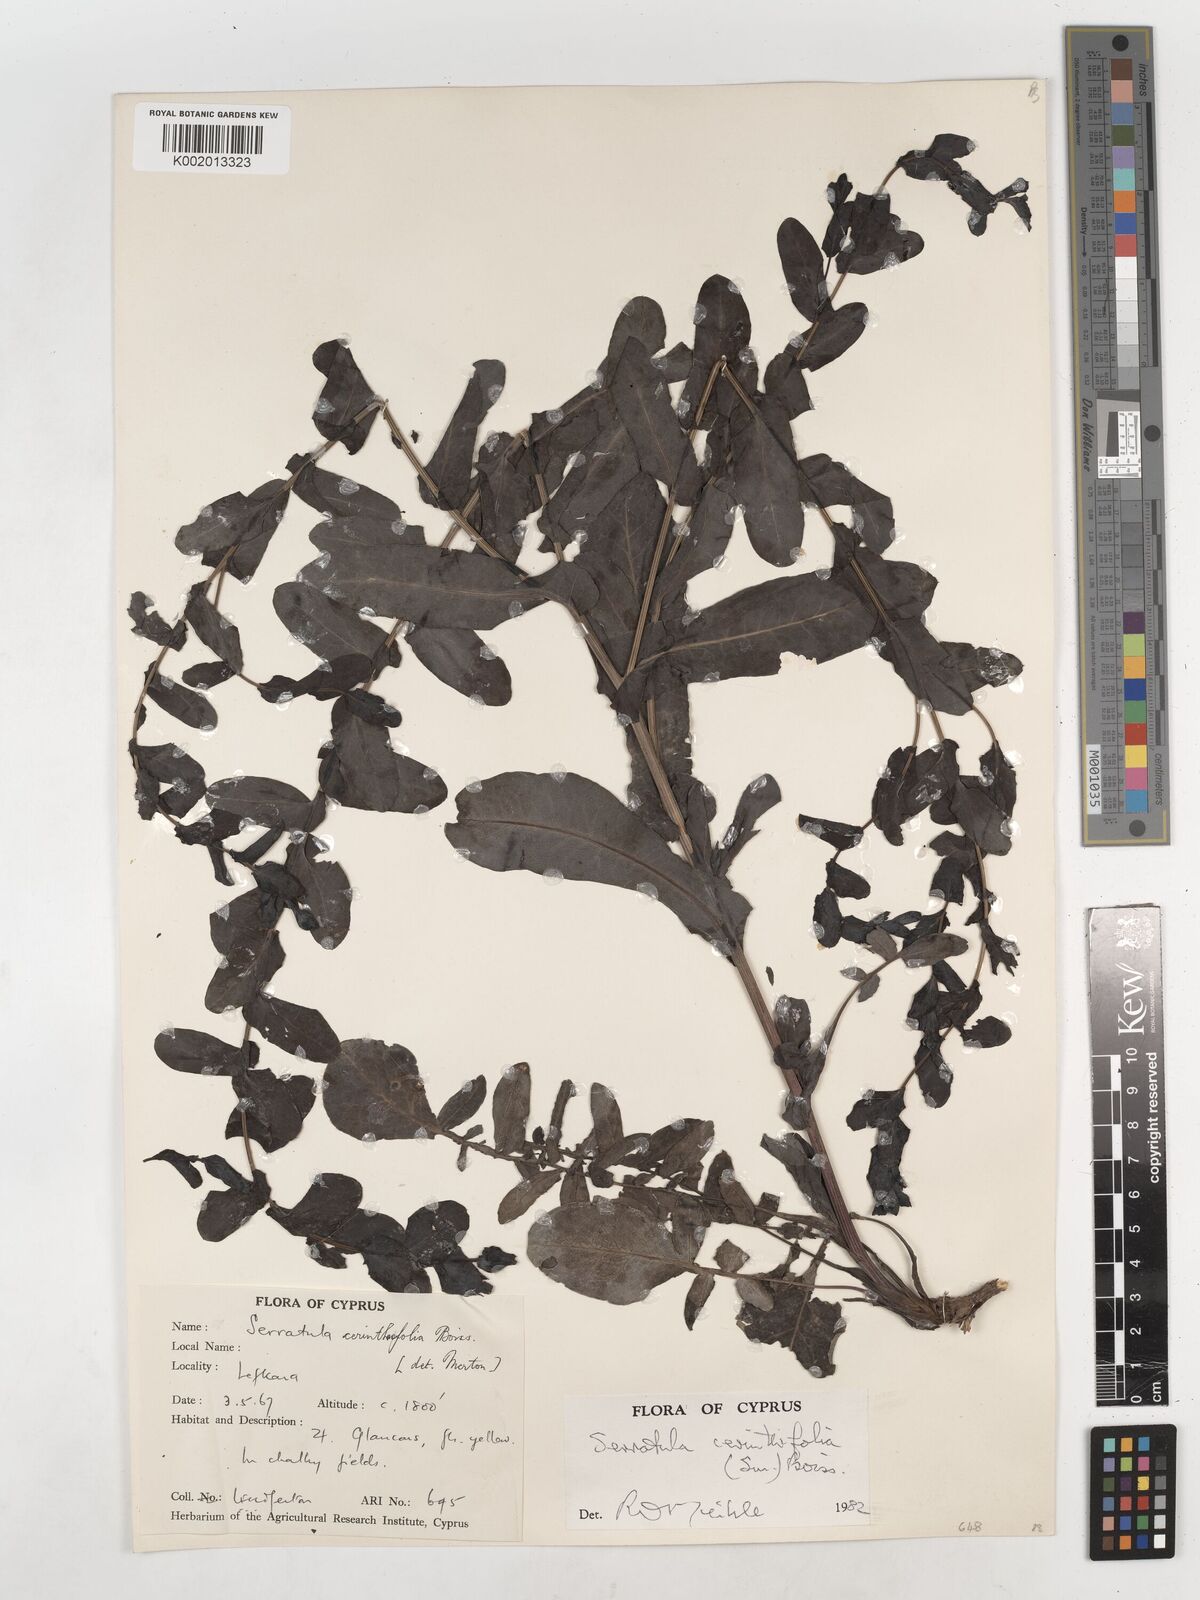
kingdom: Plantae
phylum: Tracheophyta
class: Magnoliopsida
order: Asterales
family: Asteraceae
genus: Klasea
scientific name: Klasea cerinthifolia
